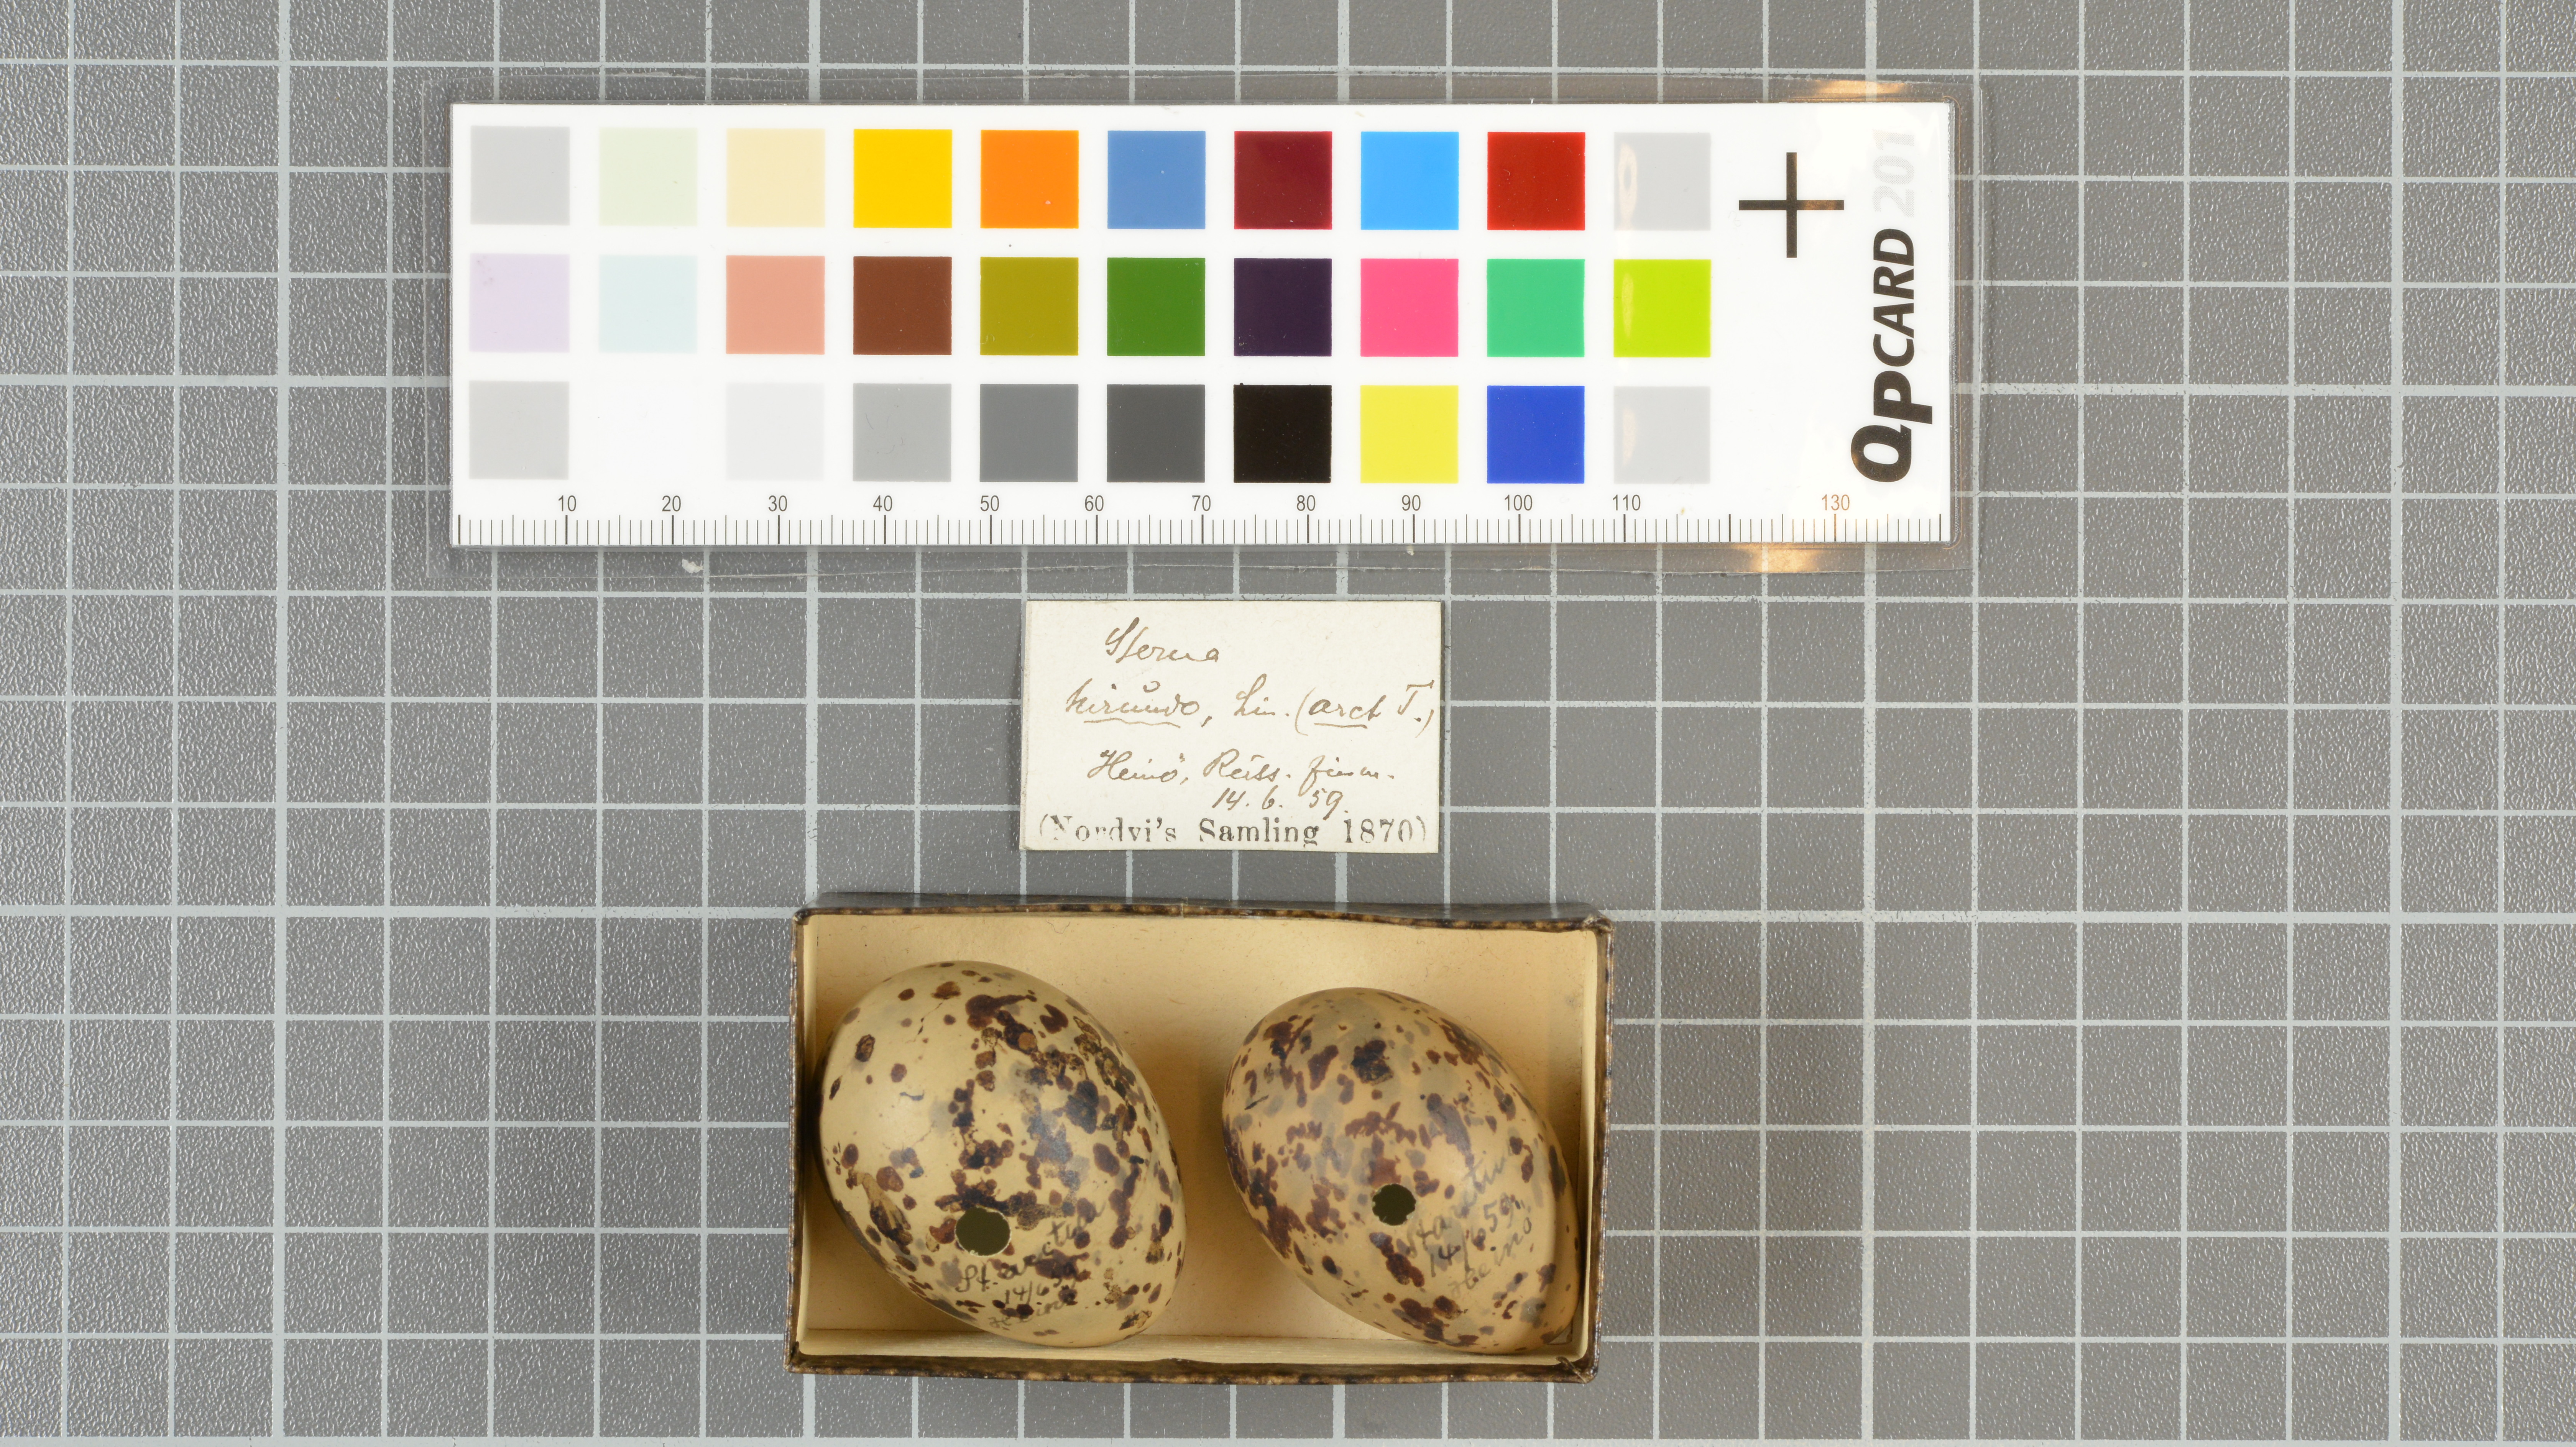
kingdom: Animalia
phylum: Chordata
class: Aves
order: Charadriiformes
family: Laridae
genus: Sterna
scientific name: Sterna hirundo
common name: Common tern
